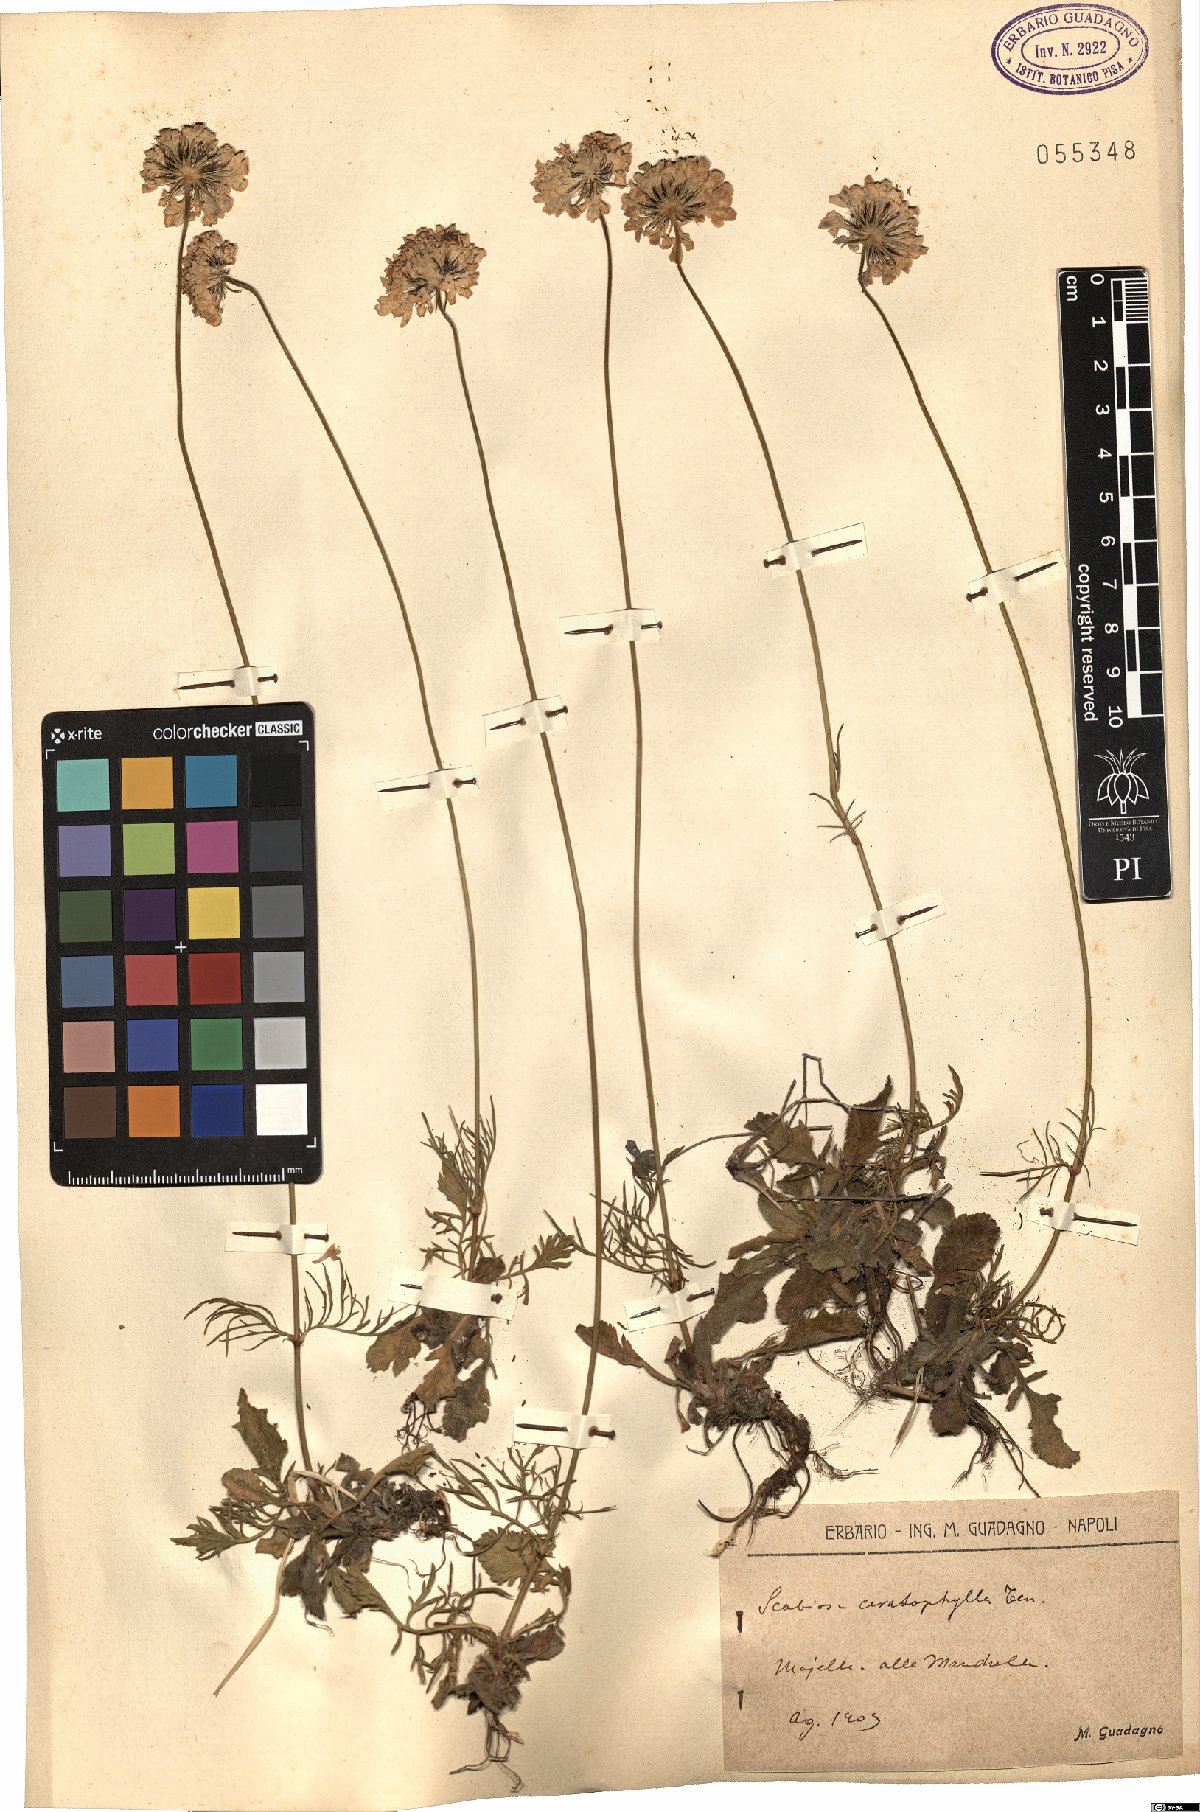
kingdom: Plantae
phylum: Tracheophyta
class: Magnoliopsida
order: Dipsacales
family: Caprifoliaceae
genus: Scabiosa
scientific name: Scabiosa triandra
